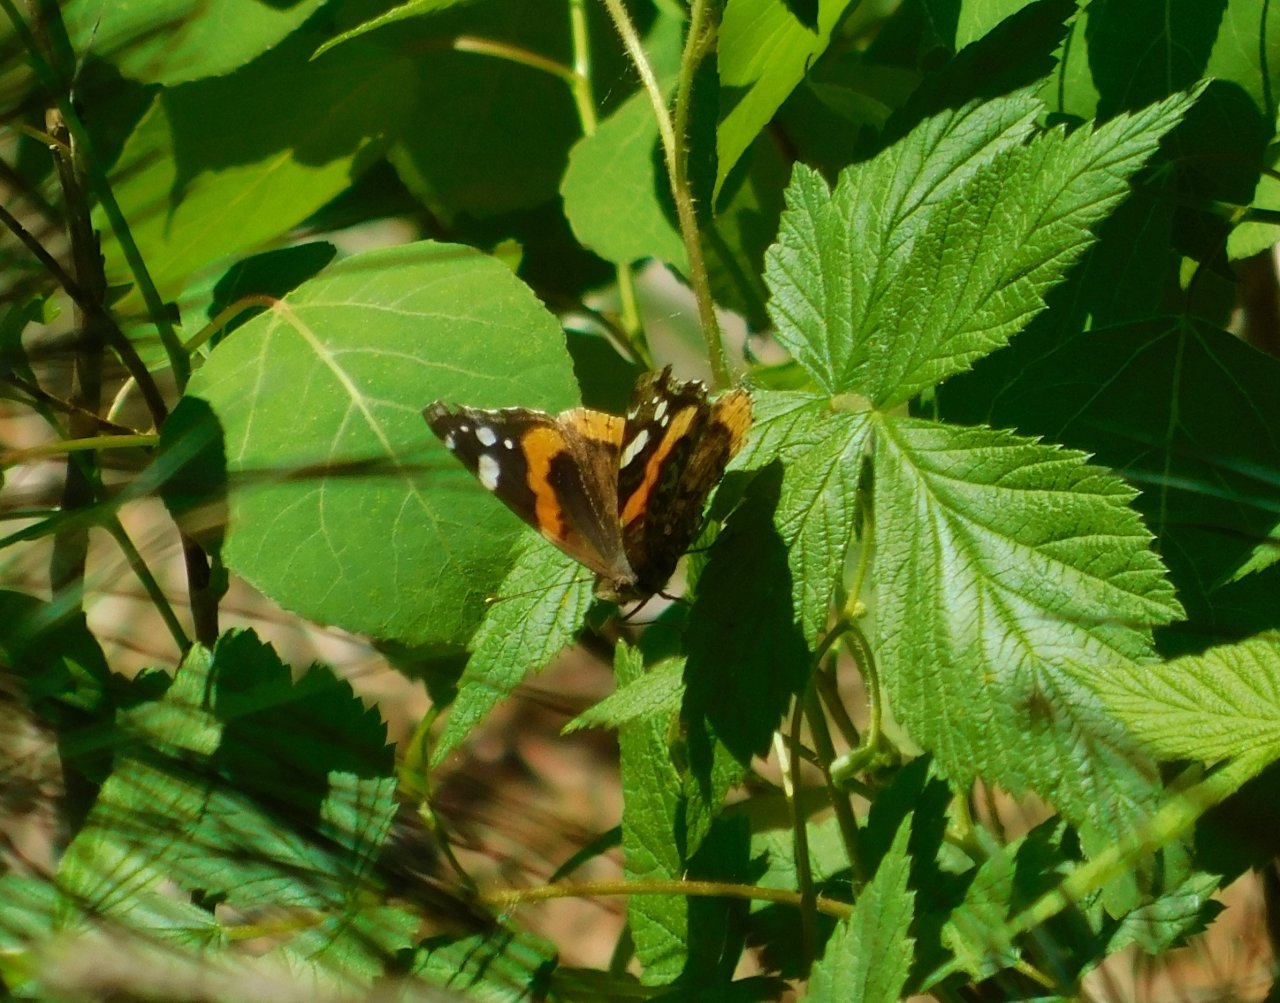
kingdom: Animalia
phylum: Arthropoda
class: Insecta
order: Lepidoptera
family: Nymphalidae
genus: Vanessa
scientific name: Vanessa atalanta
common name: Red Admiral
